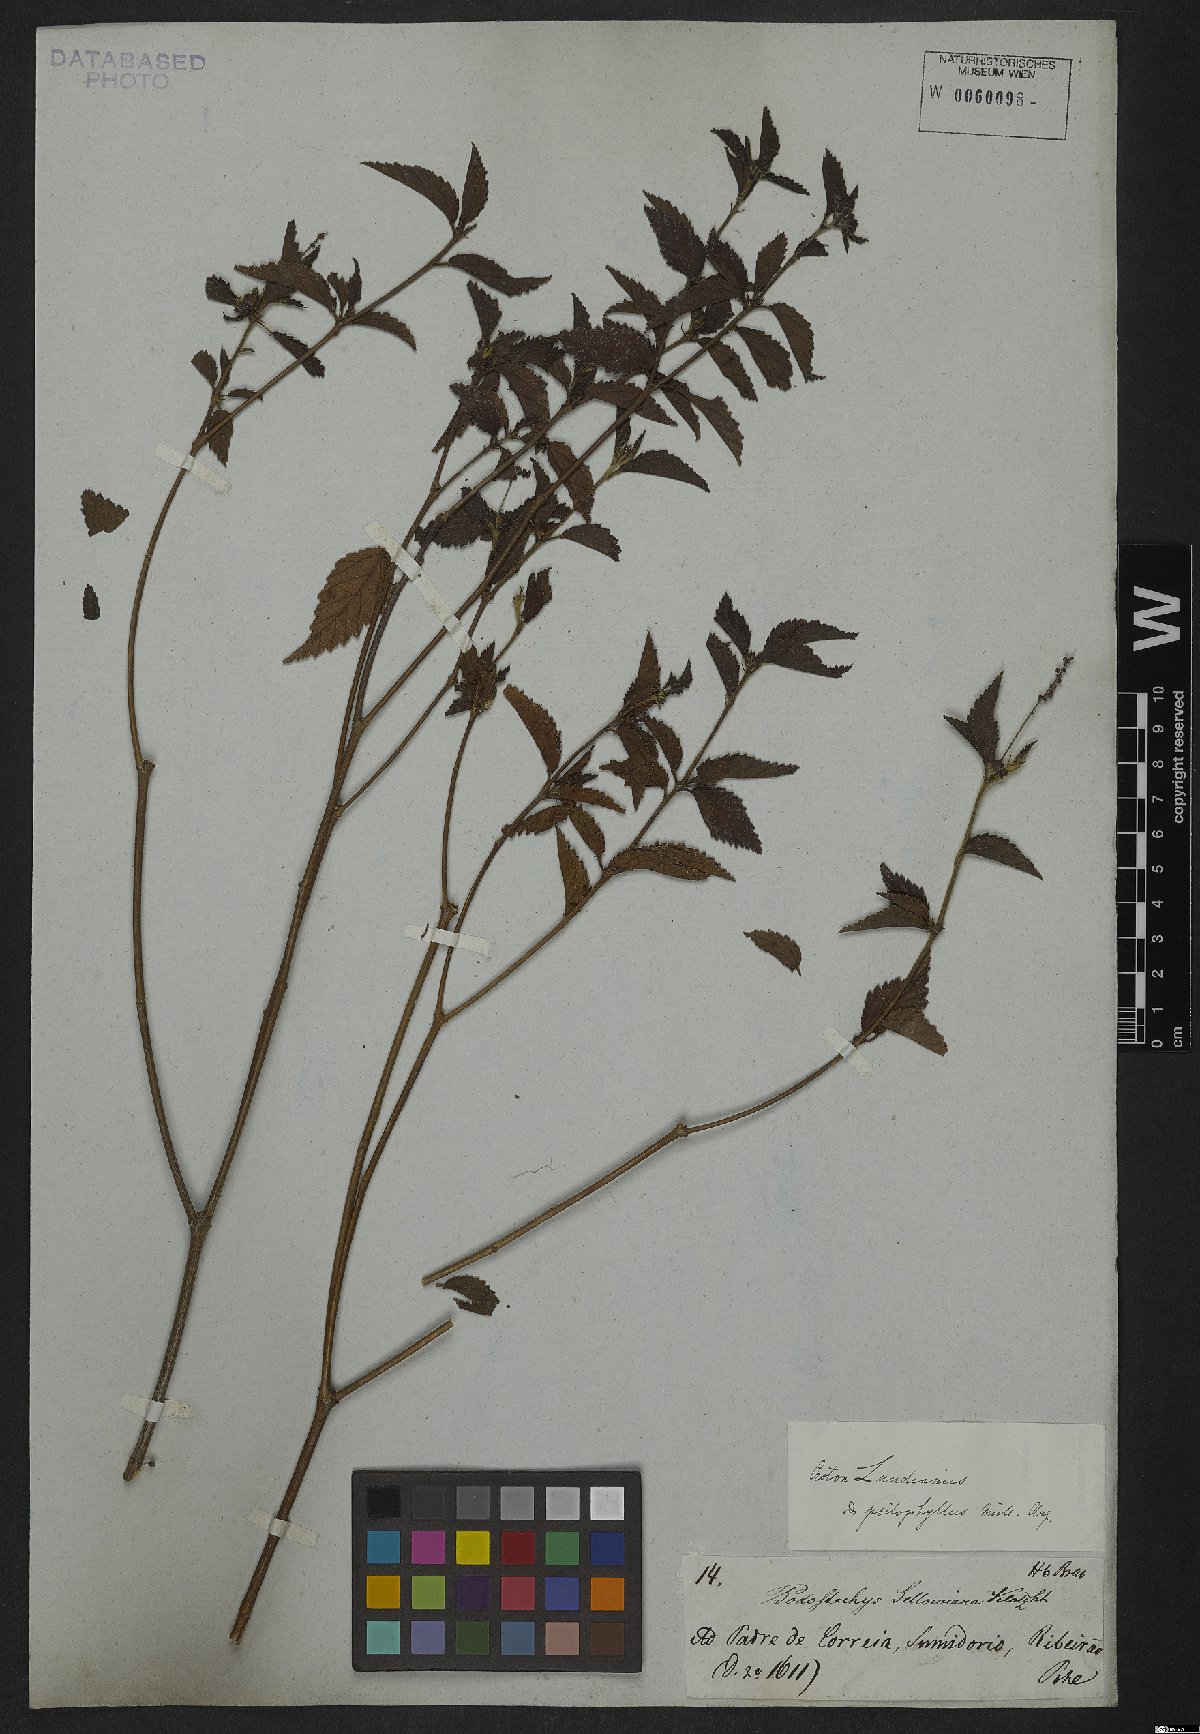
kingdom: Plantae
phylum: Tracheophyta
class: Magnoliopsida
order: Malpighiales
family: Euphorbiaceae
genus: Croton
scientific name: Croton lundianus
